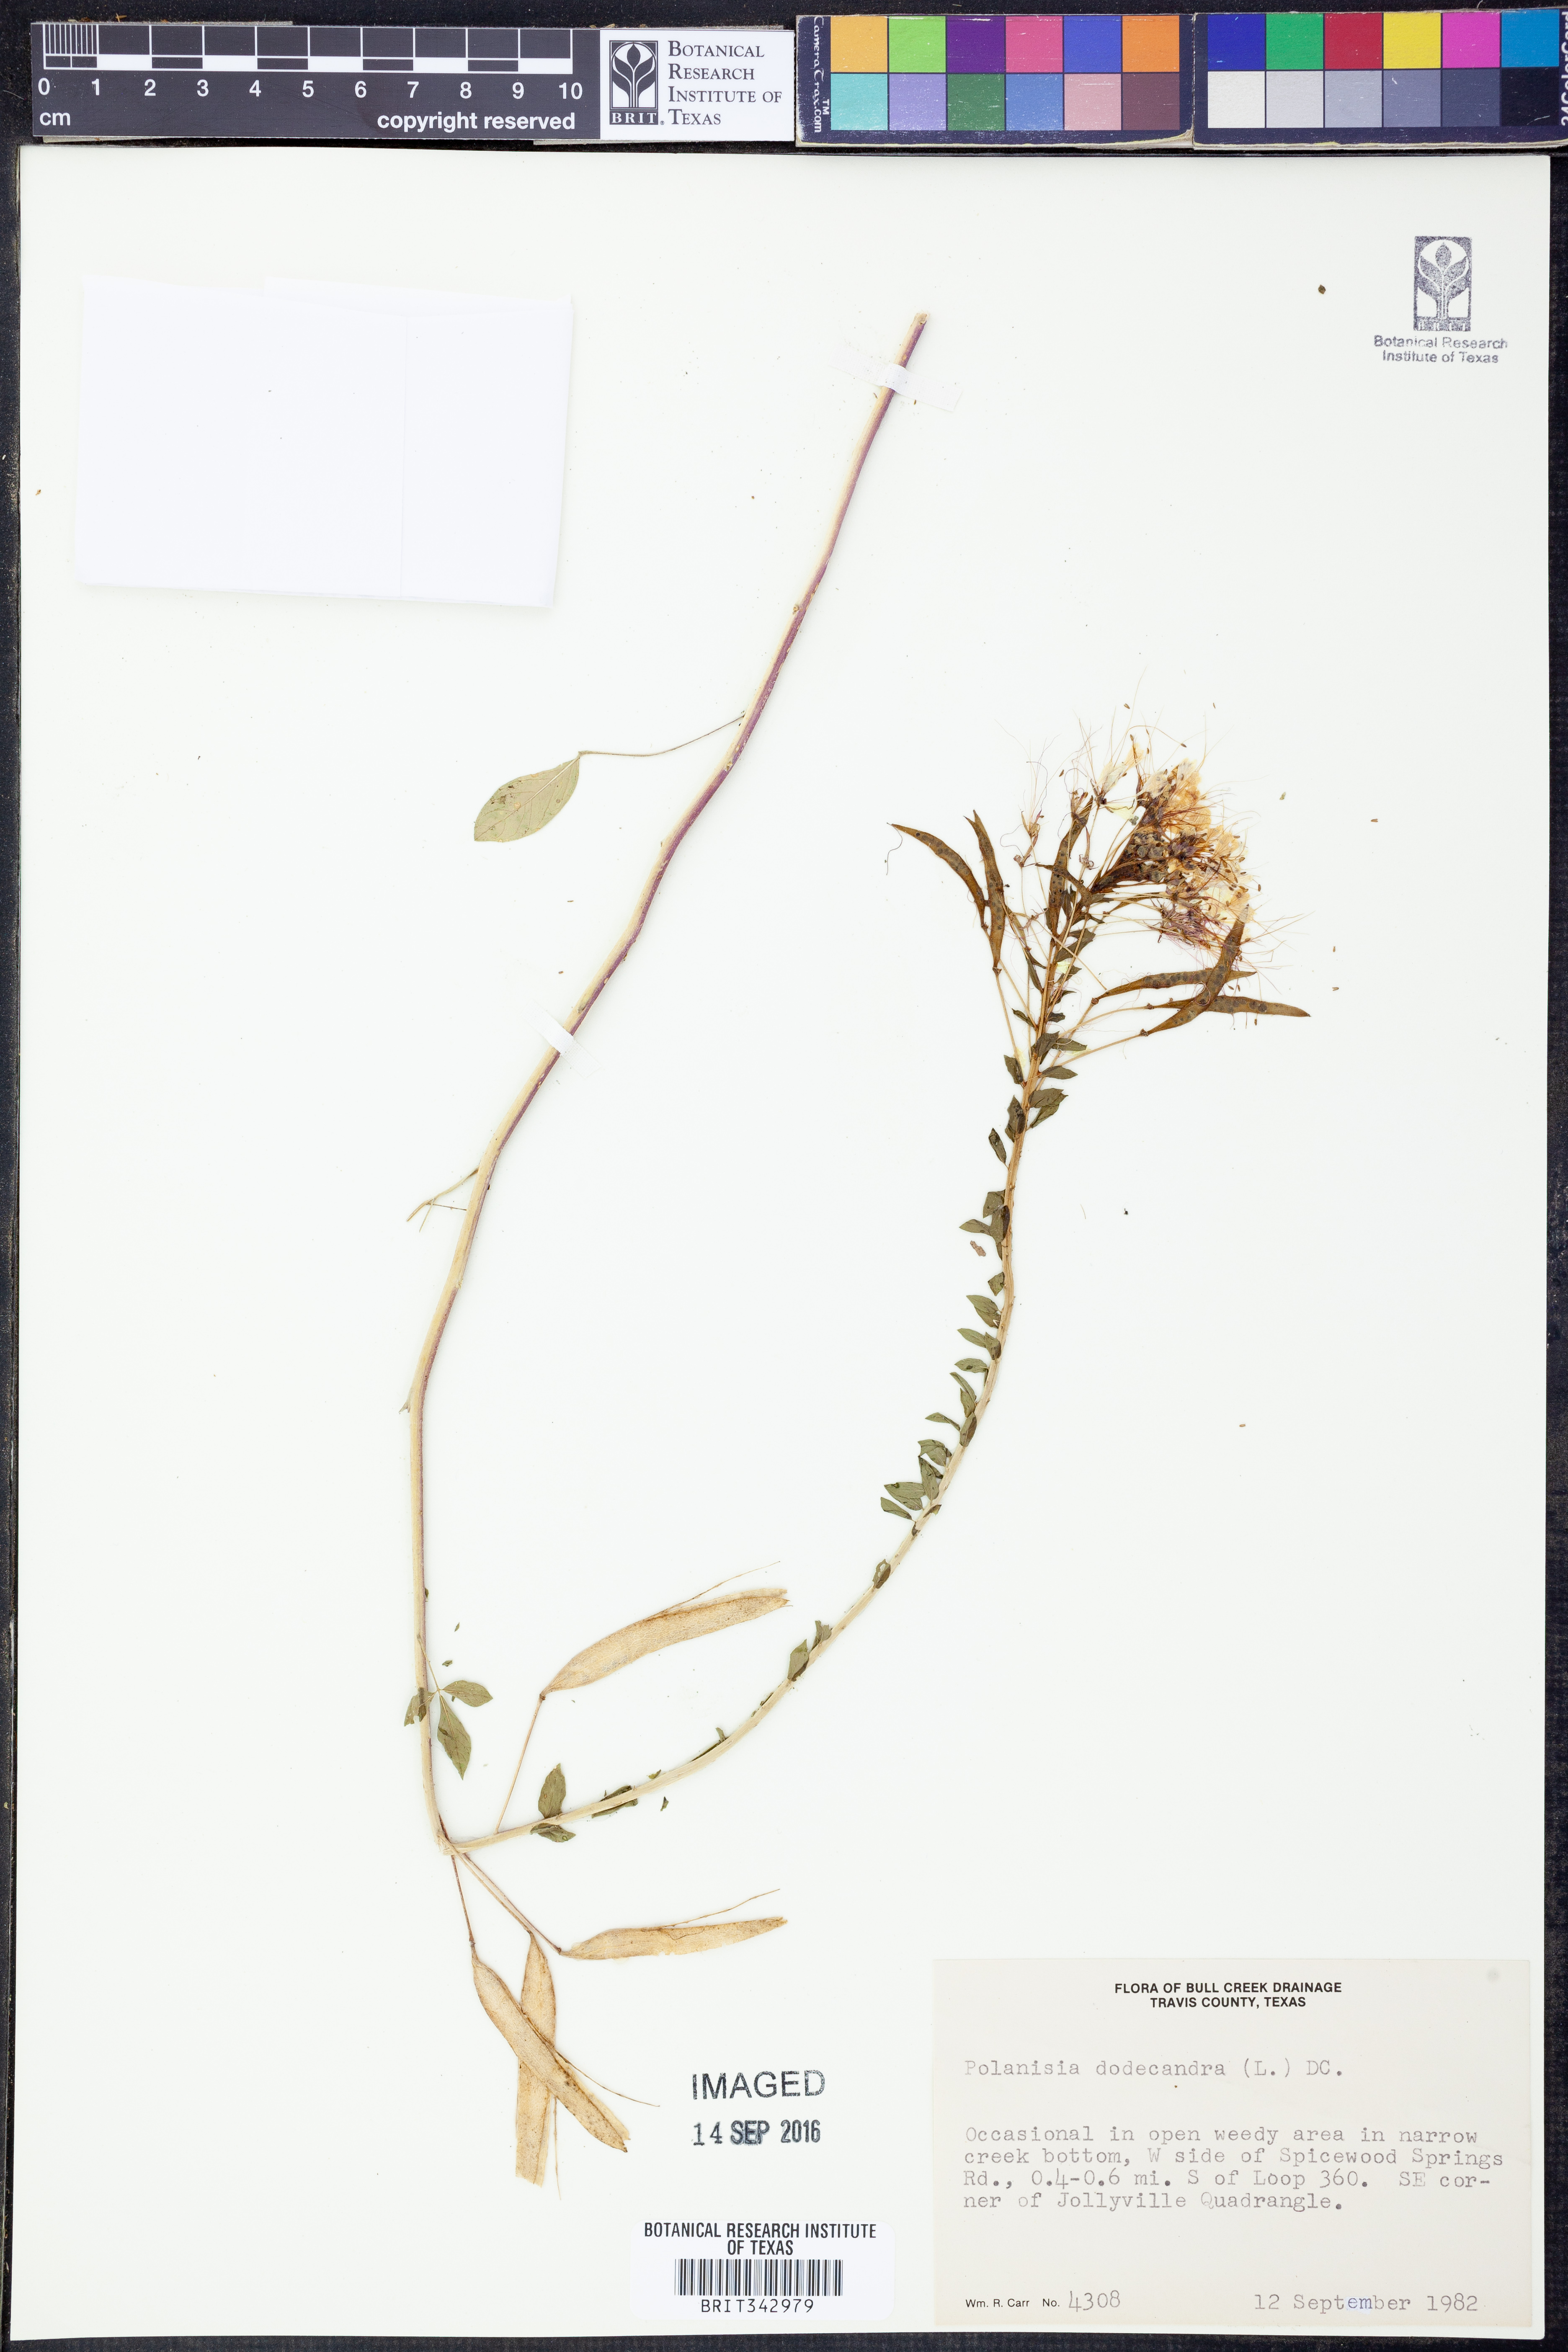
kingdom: Plantae
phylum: Tracheophyta
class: Magnoliopsida
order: Brassicales
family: Cleomaceae
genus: Polanisia
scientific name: Polanisia dodecandra
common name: Clammyweed
